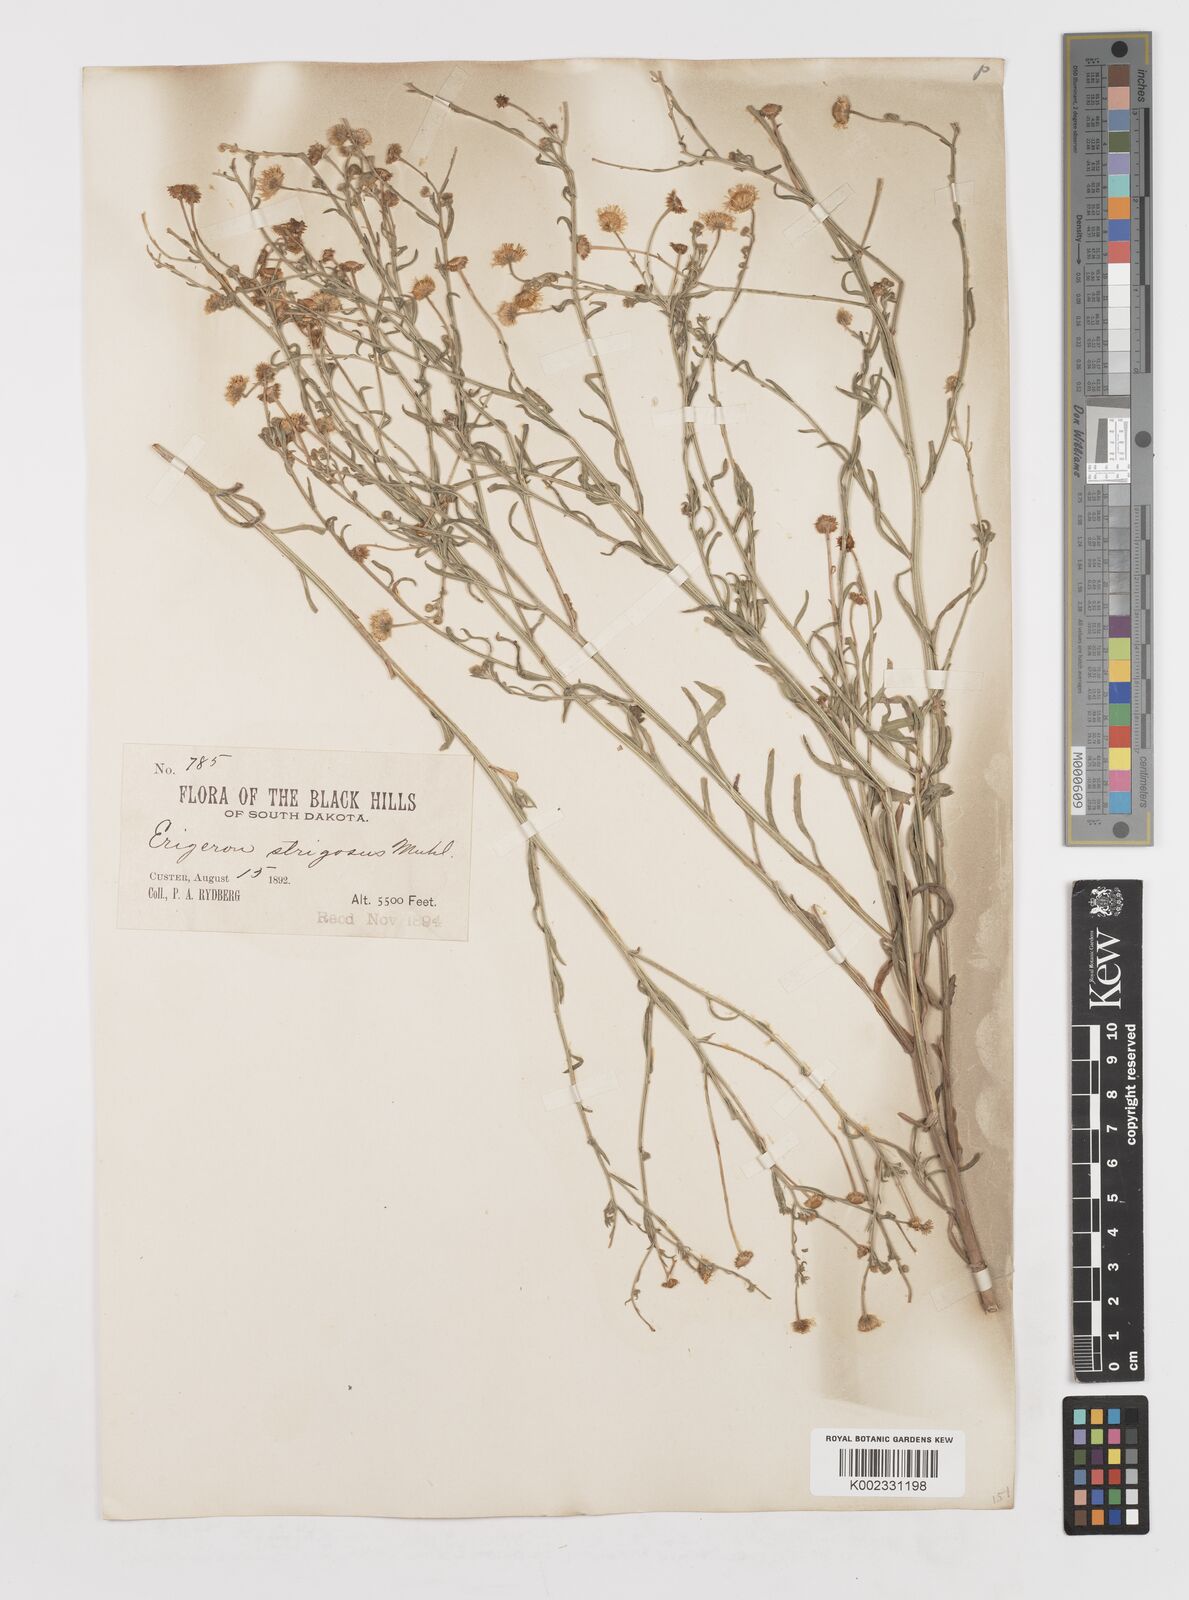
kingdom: Plantae
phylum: Tracheophyta
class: Magnoliopsida
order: Asterales
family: Asteraceae
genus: Erigeron
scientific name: Erigeron strigosus
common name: Common eastern fleabane
